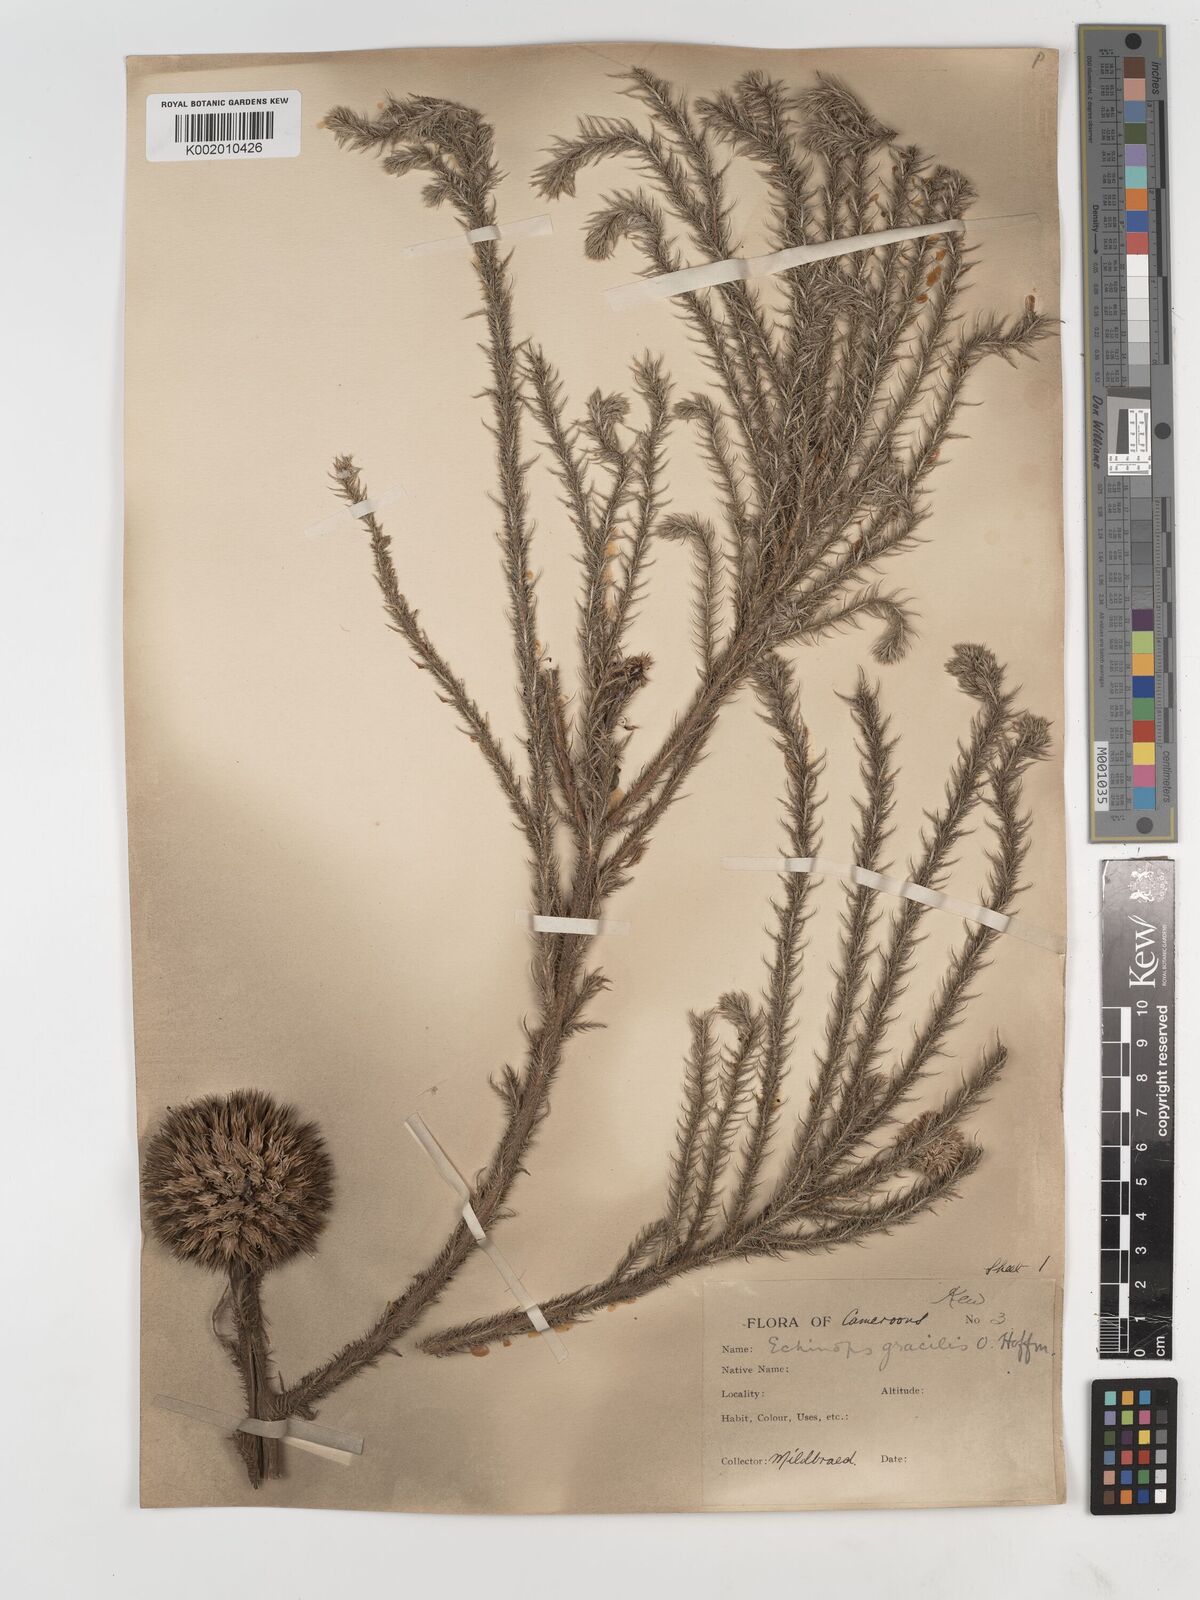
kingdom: Plantae
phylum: Tracheophyta
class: Magnoliopsida
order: Asterales
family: Asteraceae
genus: Echinops
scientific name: Echinops gracilis
